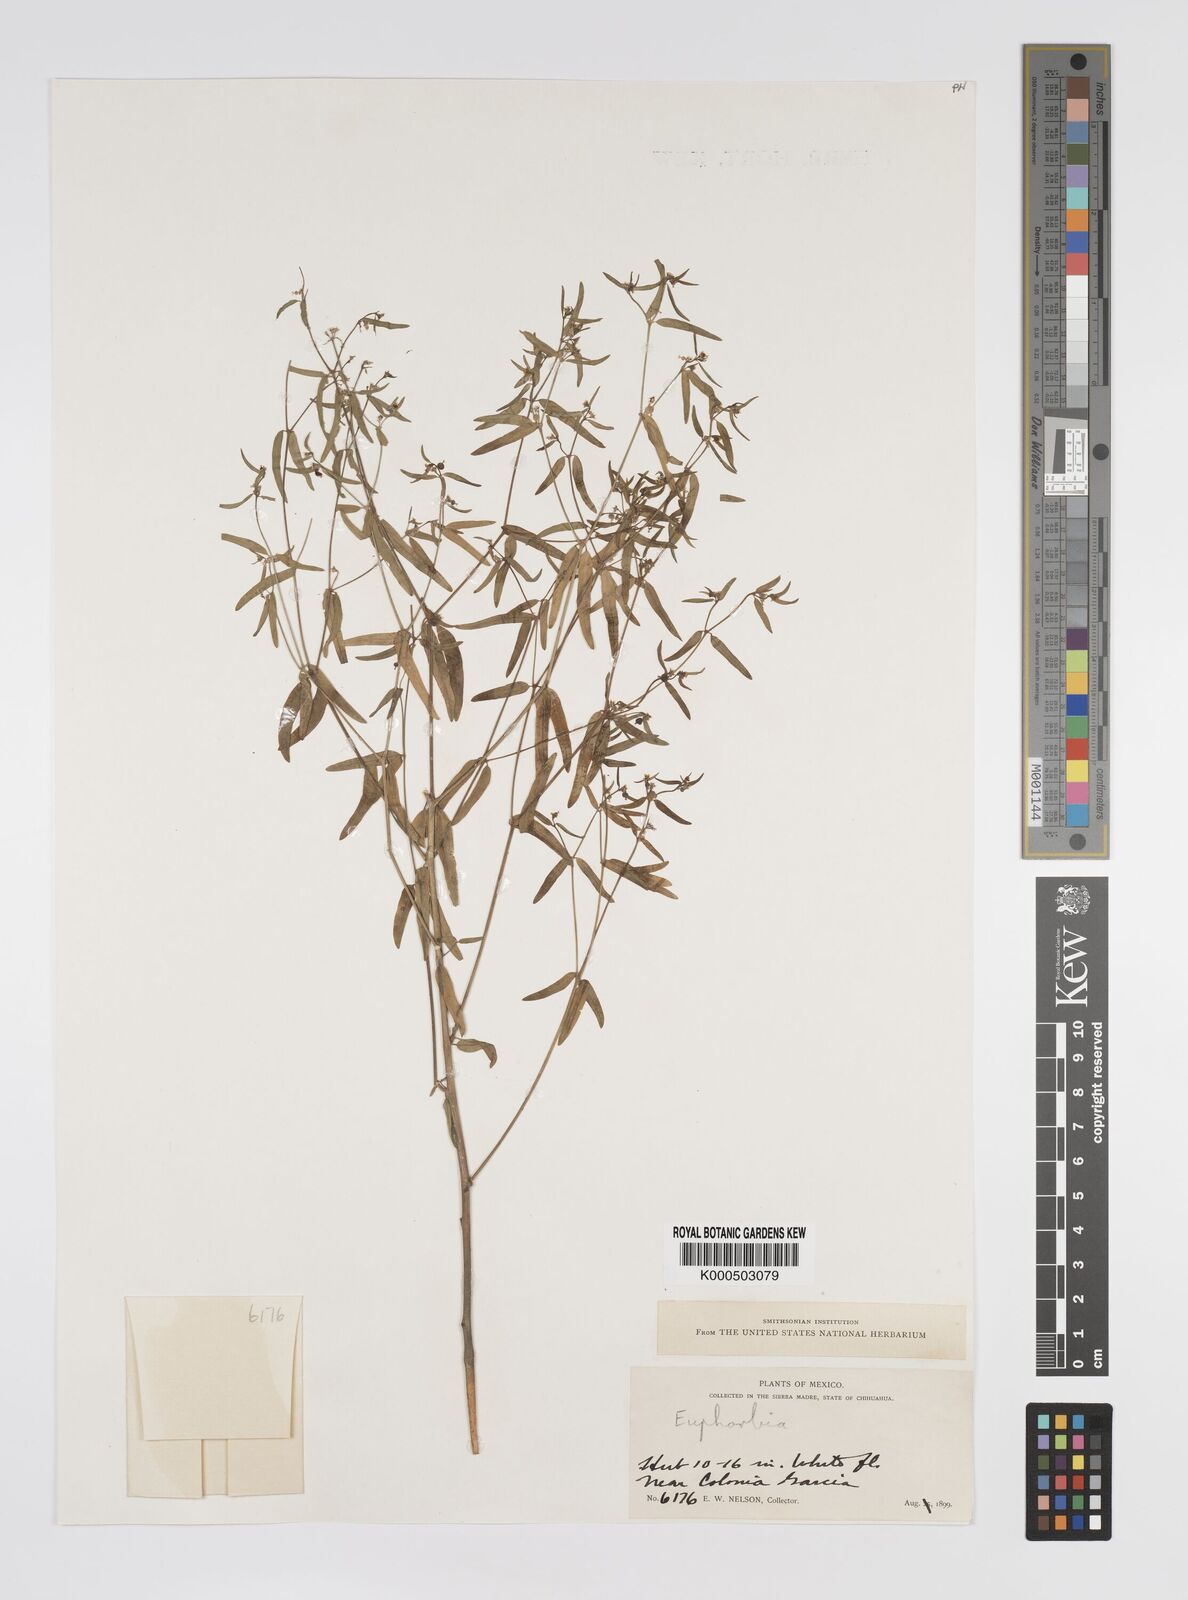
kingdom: Plantae
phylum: Tracheophyta
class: Magnoliopsida
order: Malpighiales
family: Euphorbiaceae
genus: Euphorbia
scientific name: Euphorbia
